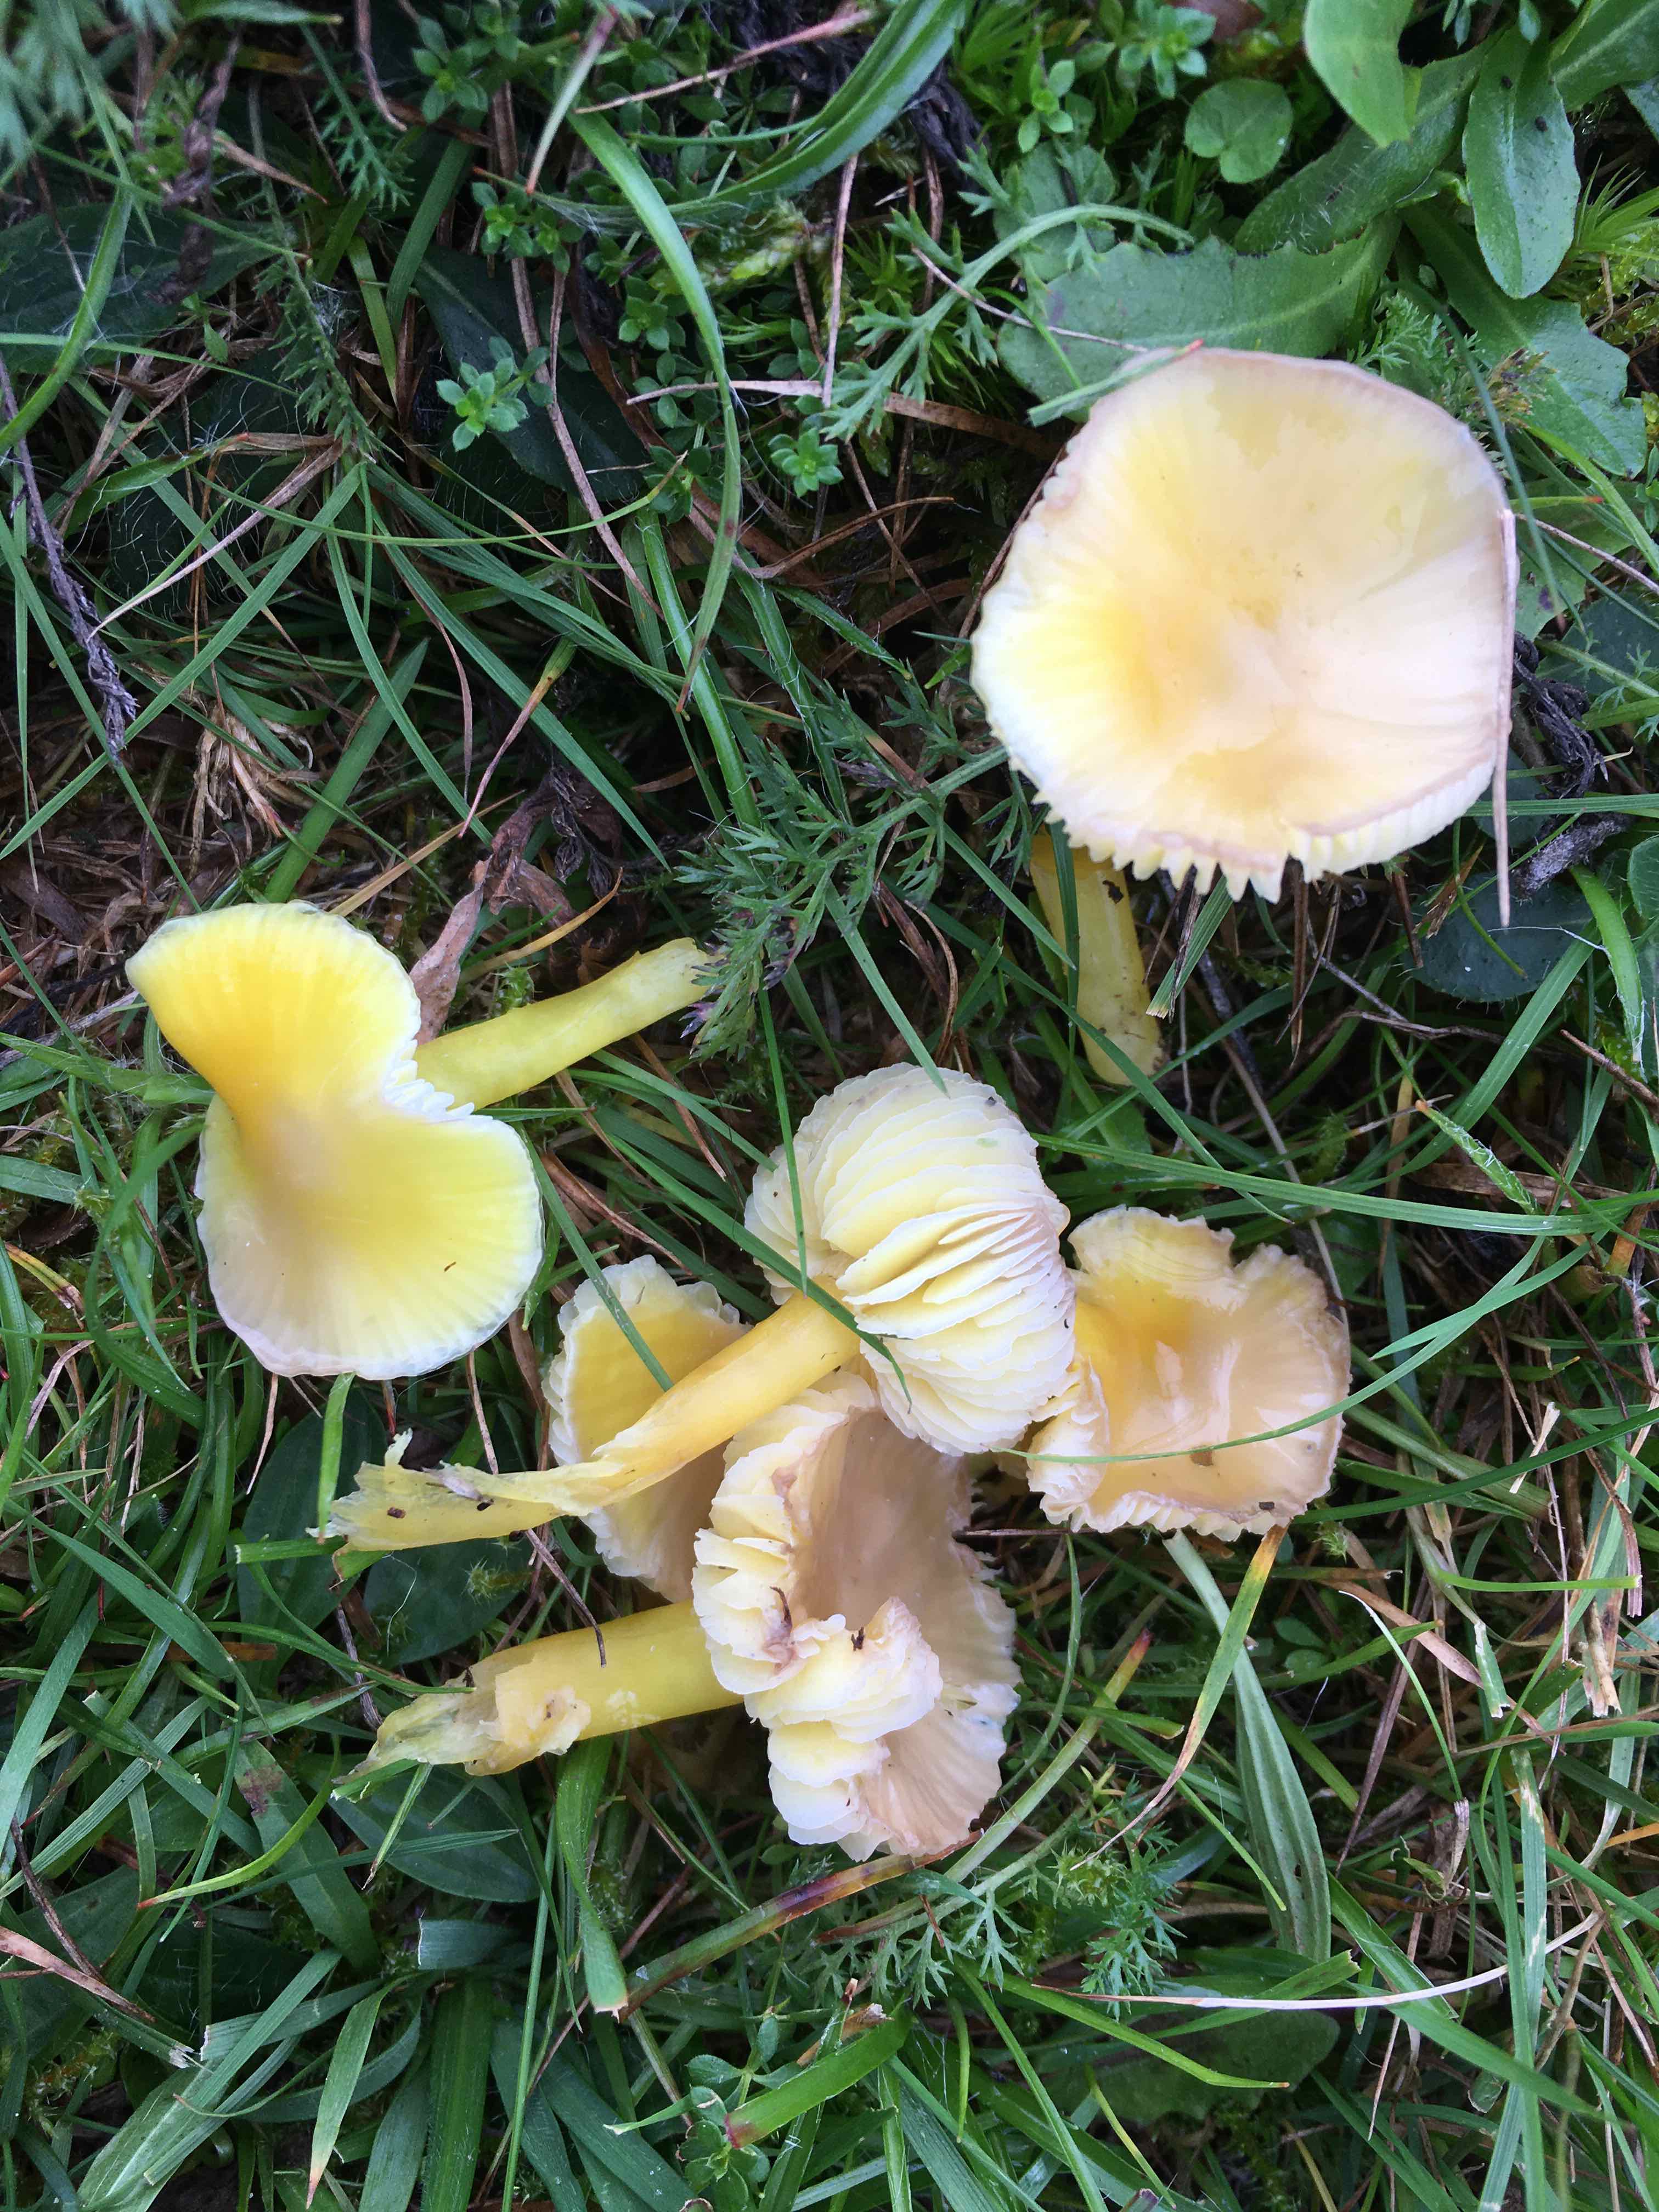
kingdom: Fungi
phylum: Basidiomycota
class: Agaricomycetes
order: Agaricales
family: Hygrophoraceae
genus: Hygrocybe
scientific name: Hygrocybe chlorophana
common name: gul vokshat
